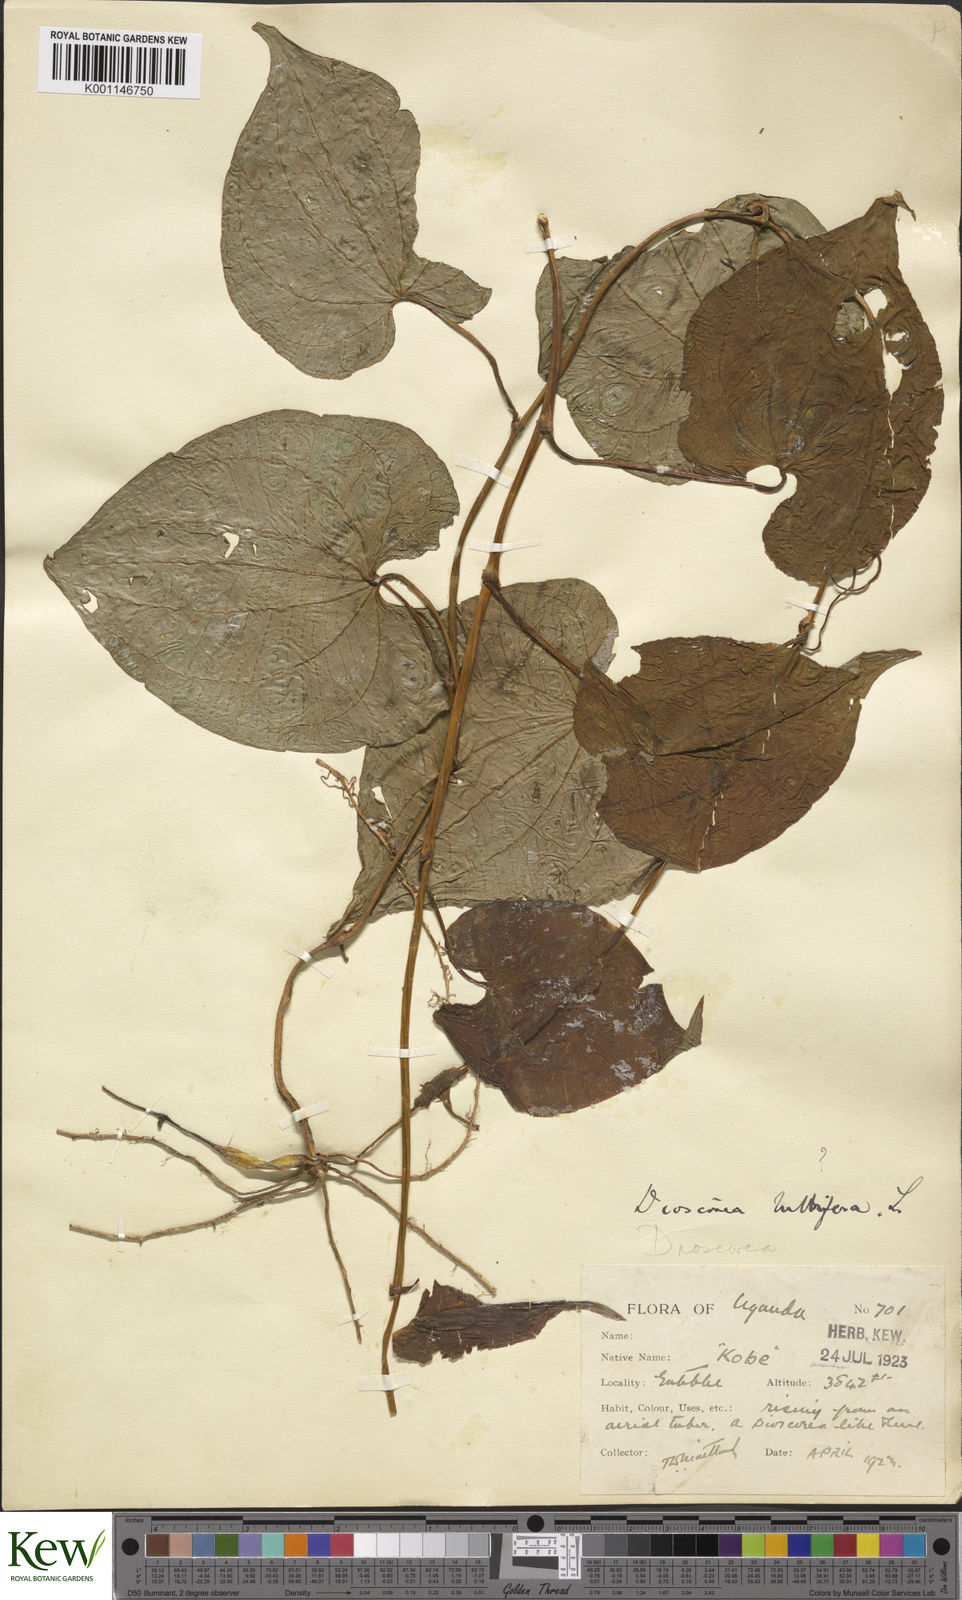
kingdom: Plantae
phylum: Tracheophyta
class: Liliopsida
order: Dioscoreales
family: Dioscoreaceae
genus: Dioscorea
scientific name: Dioscorea bulbifera
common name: Air yam
